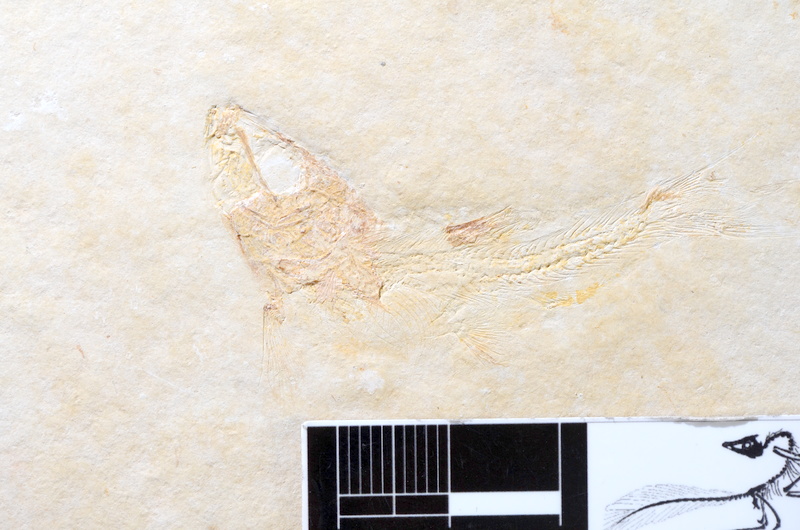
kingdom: Animalia
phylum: Chordata
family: Ascalaboidae
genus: Tharsis
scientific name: Tharsis dubius
